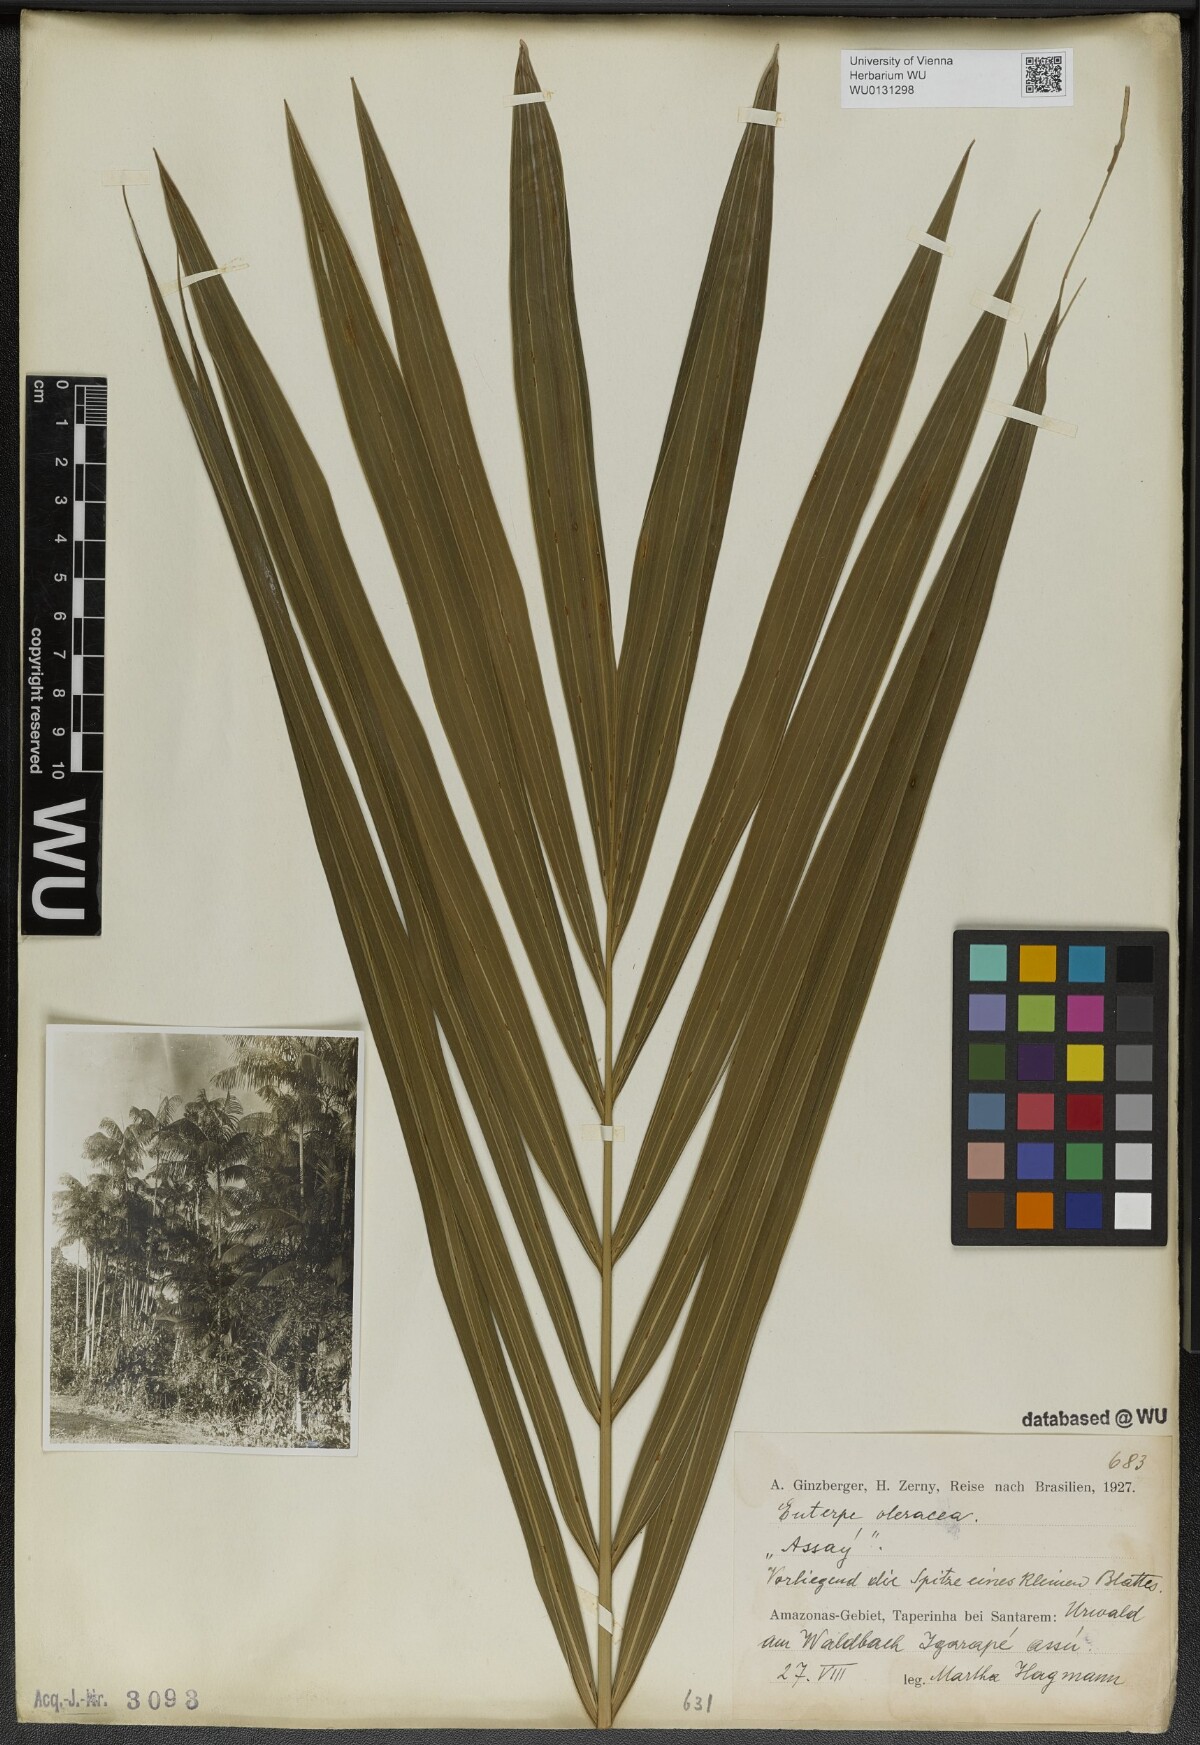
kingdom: Plantae
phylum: Tracheophyta
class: Liliopsida
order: Arecales
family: Arecaceae
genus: Euterpe
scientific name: Euterpe oleracea
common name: Assai palm
